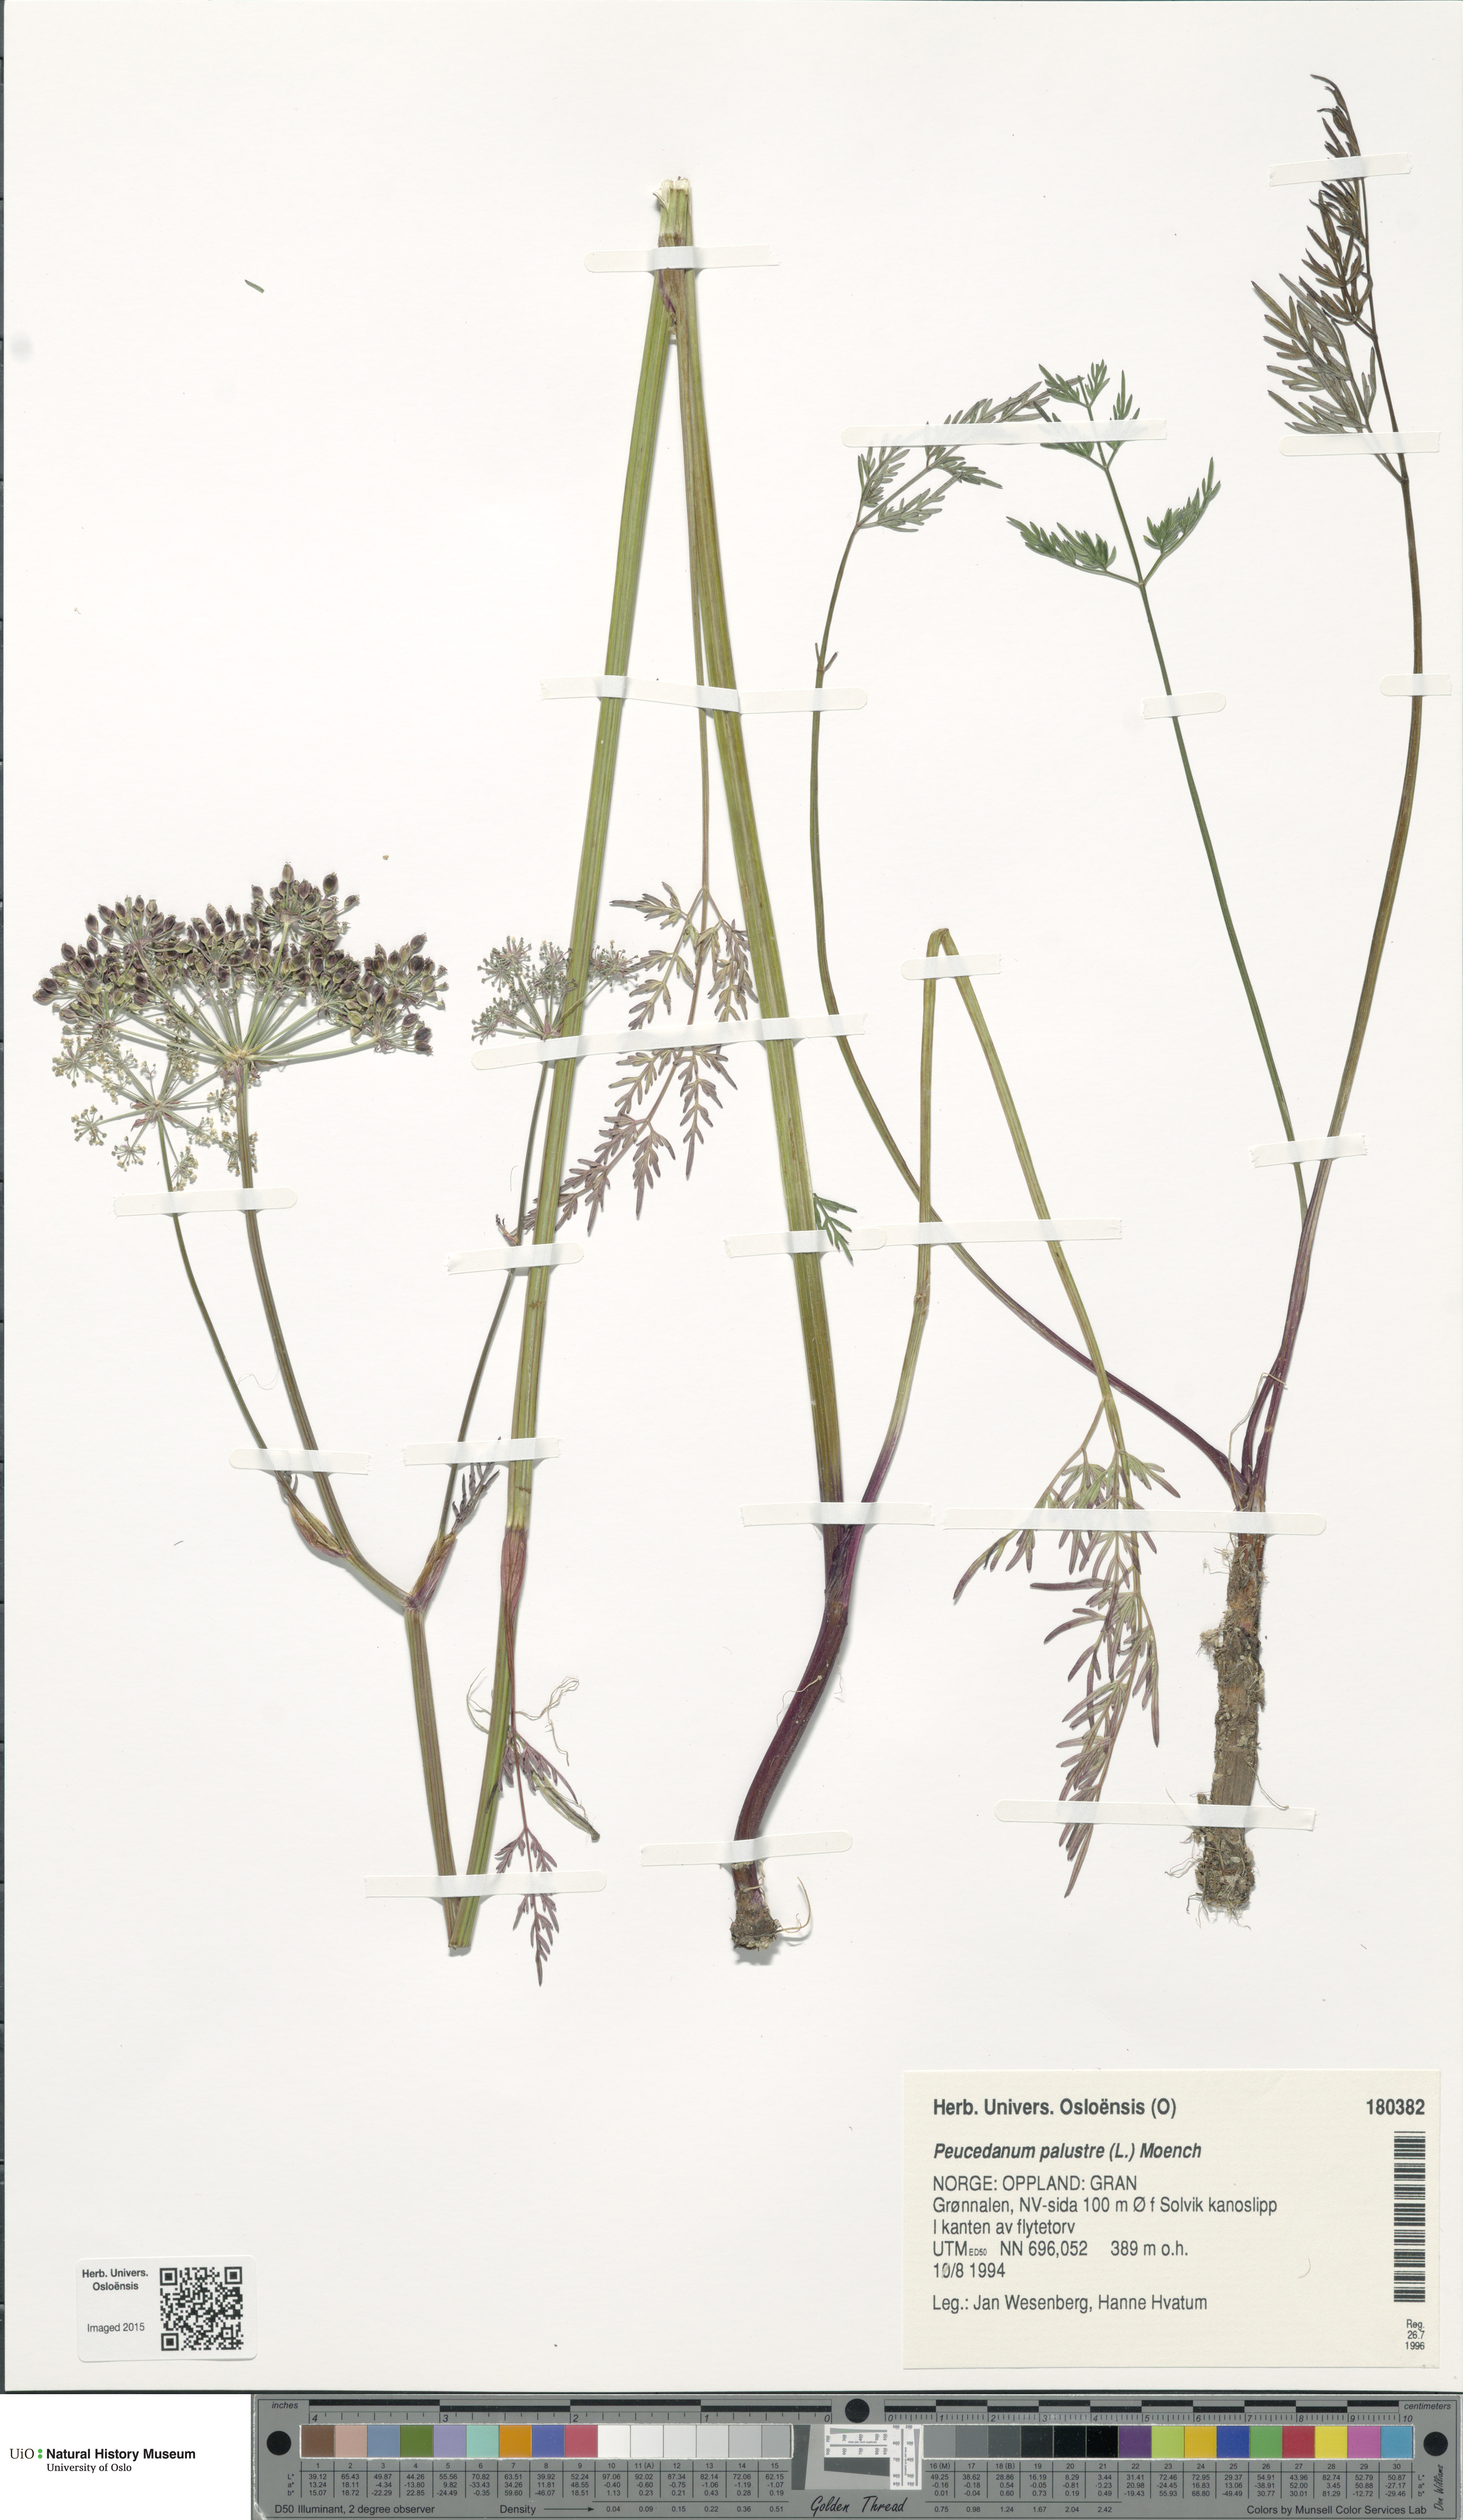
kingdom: Plantae
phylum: Tracheophyta
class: Magnoliopsida
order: Apiales
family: Apiaceae
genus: Thysselinum
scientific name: Thysselinum palustre
